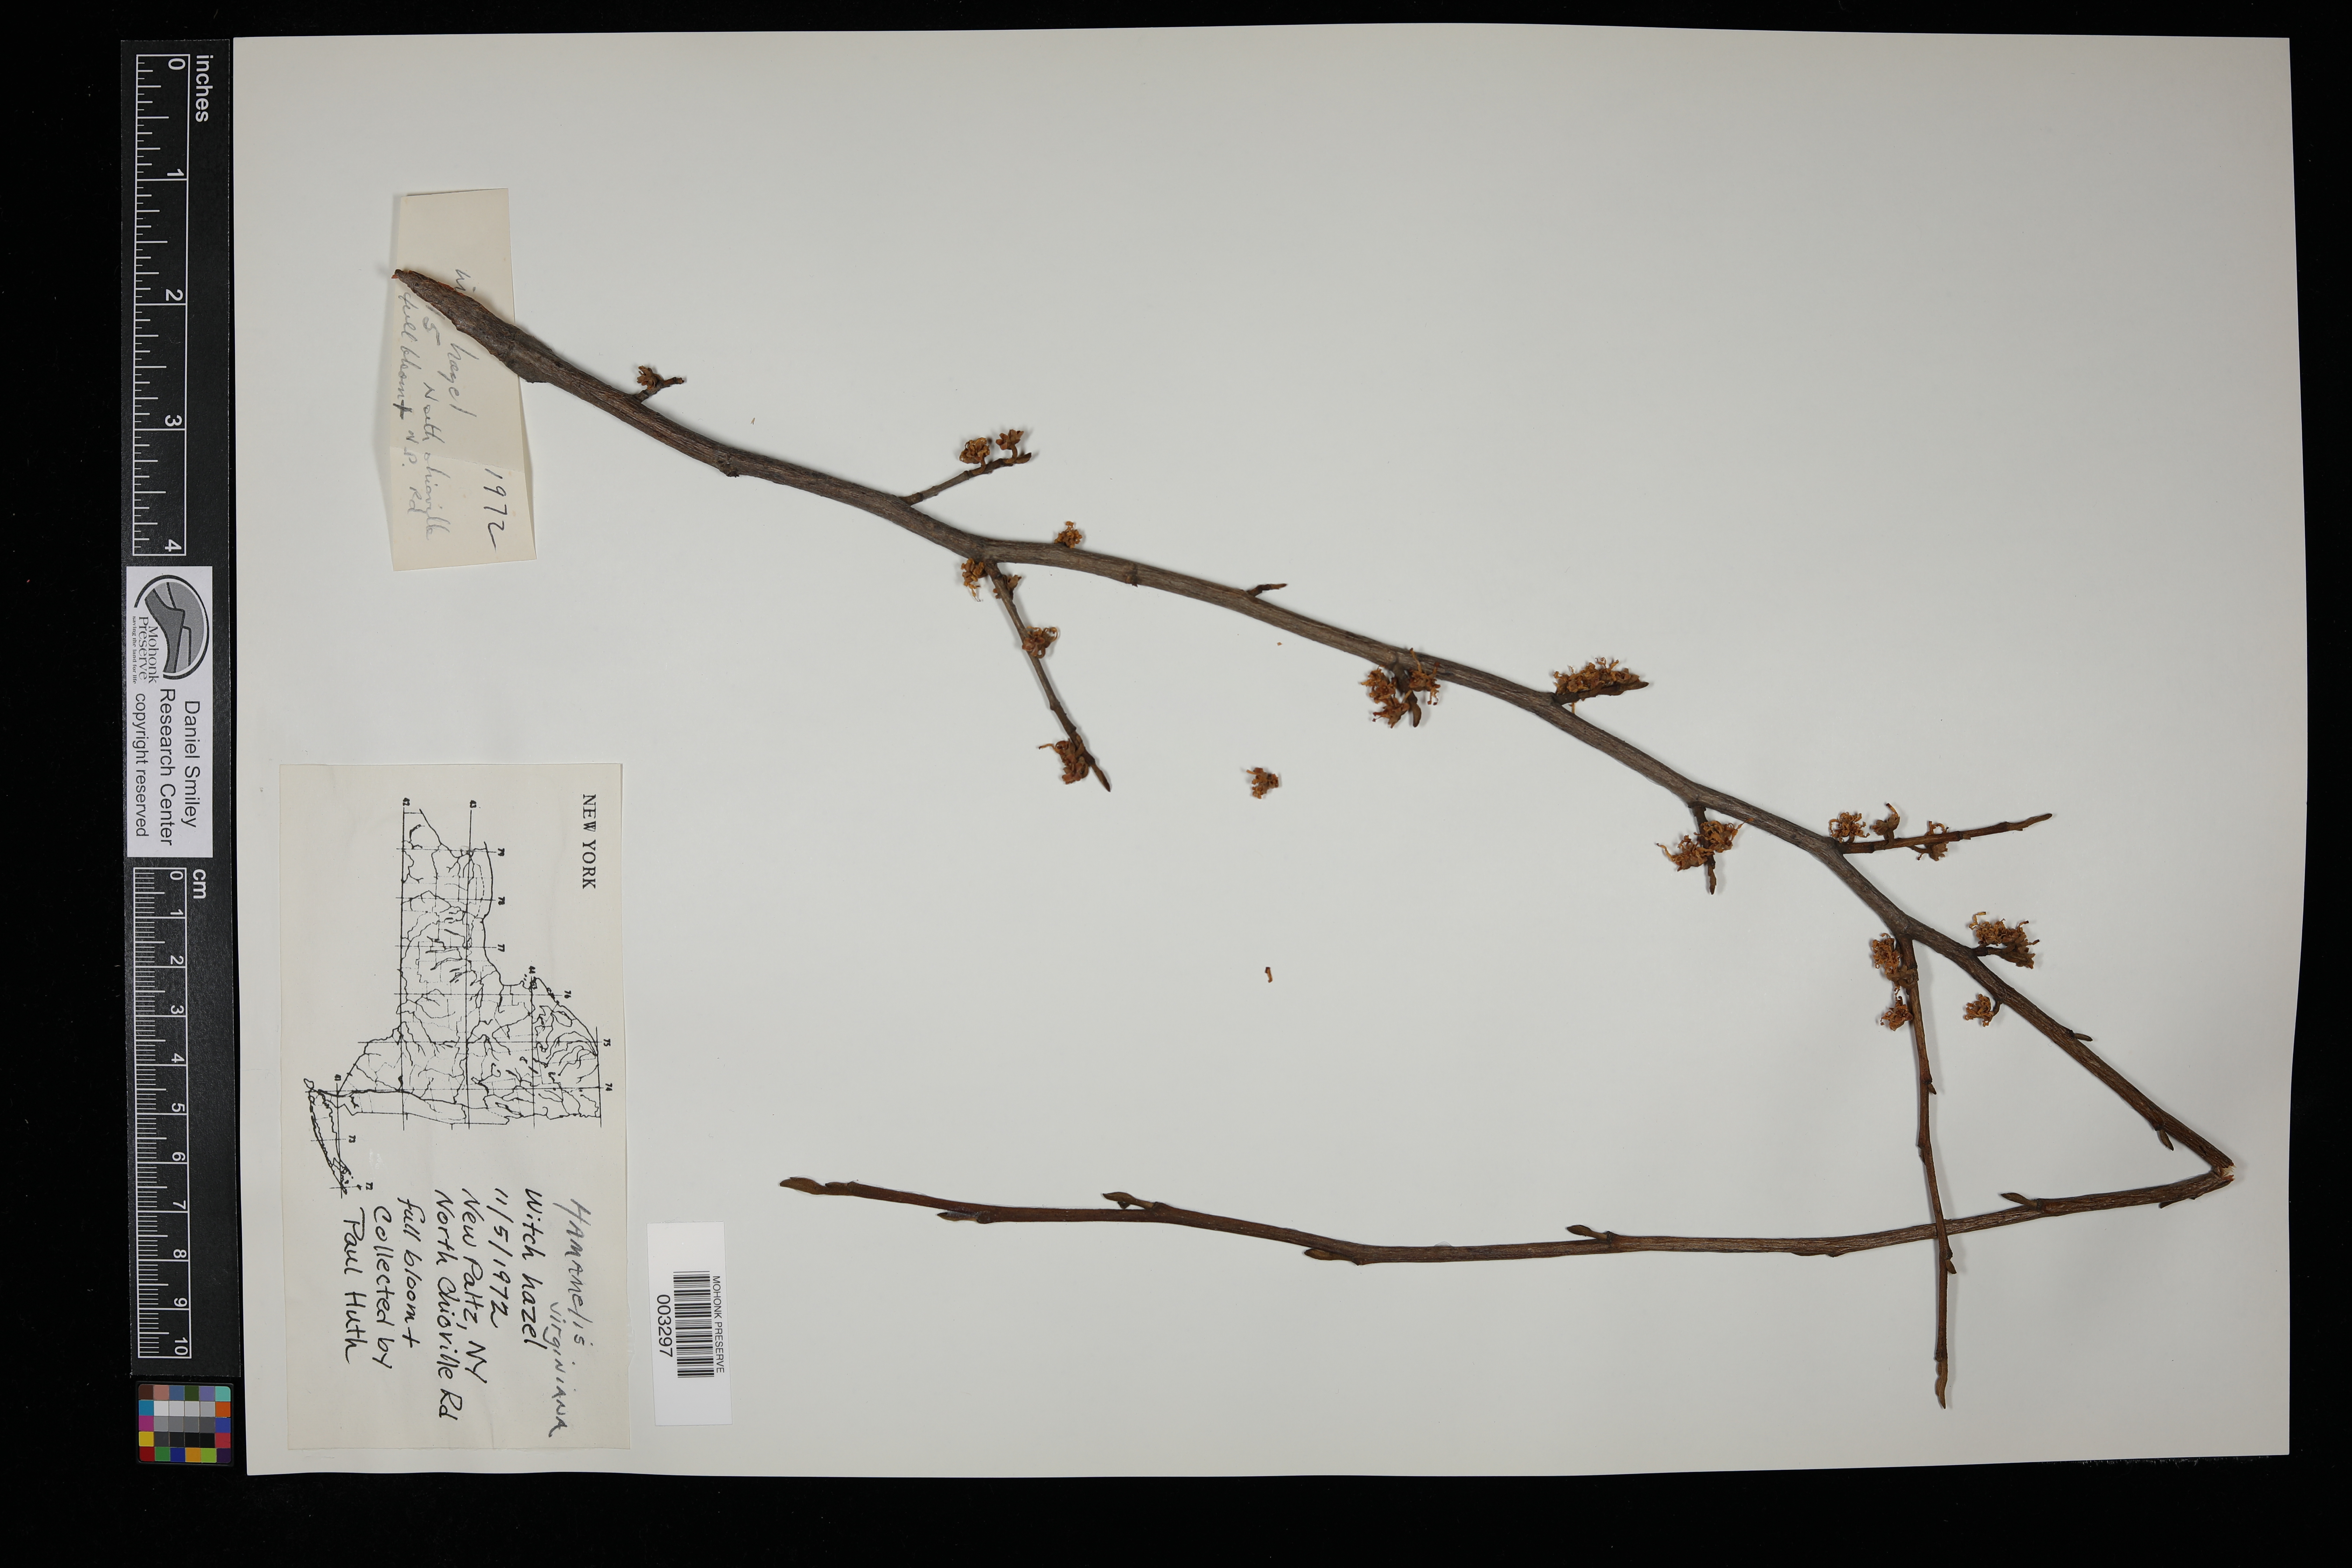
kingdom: Plantae
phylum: Tracheophyta
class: Magnoliopsida
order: Saxifragales
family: Hamamelidaceae
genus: Hamamelis
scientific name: Hamamelis virginiana
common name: Witch-hazel
